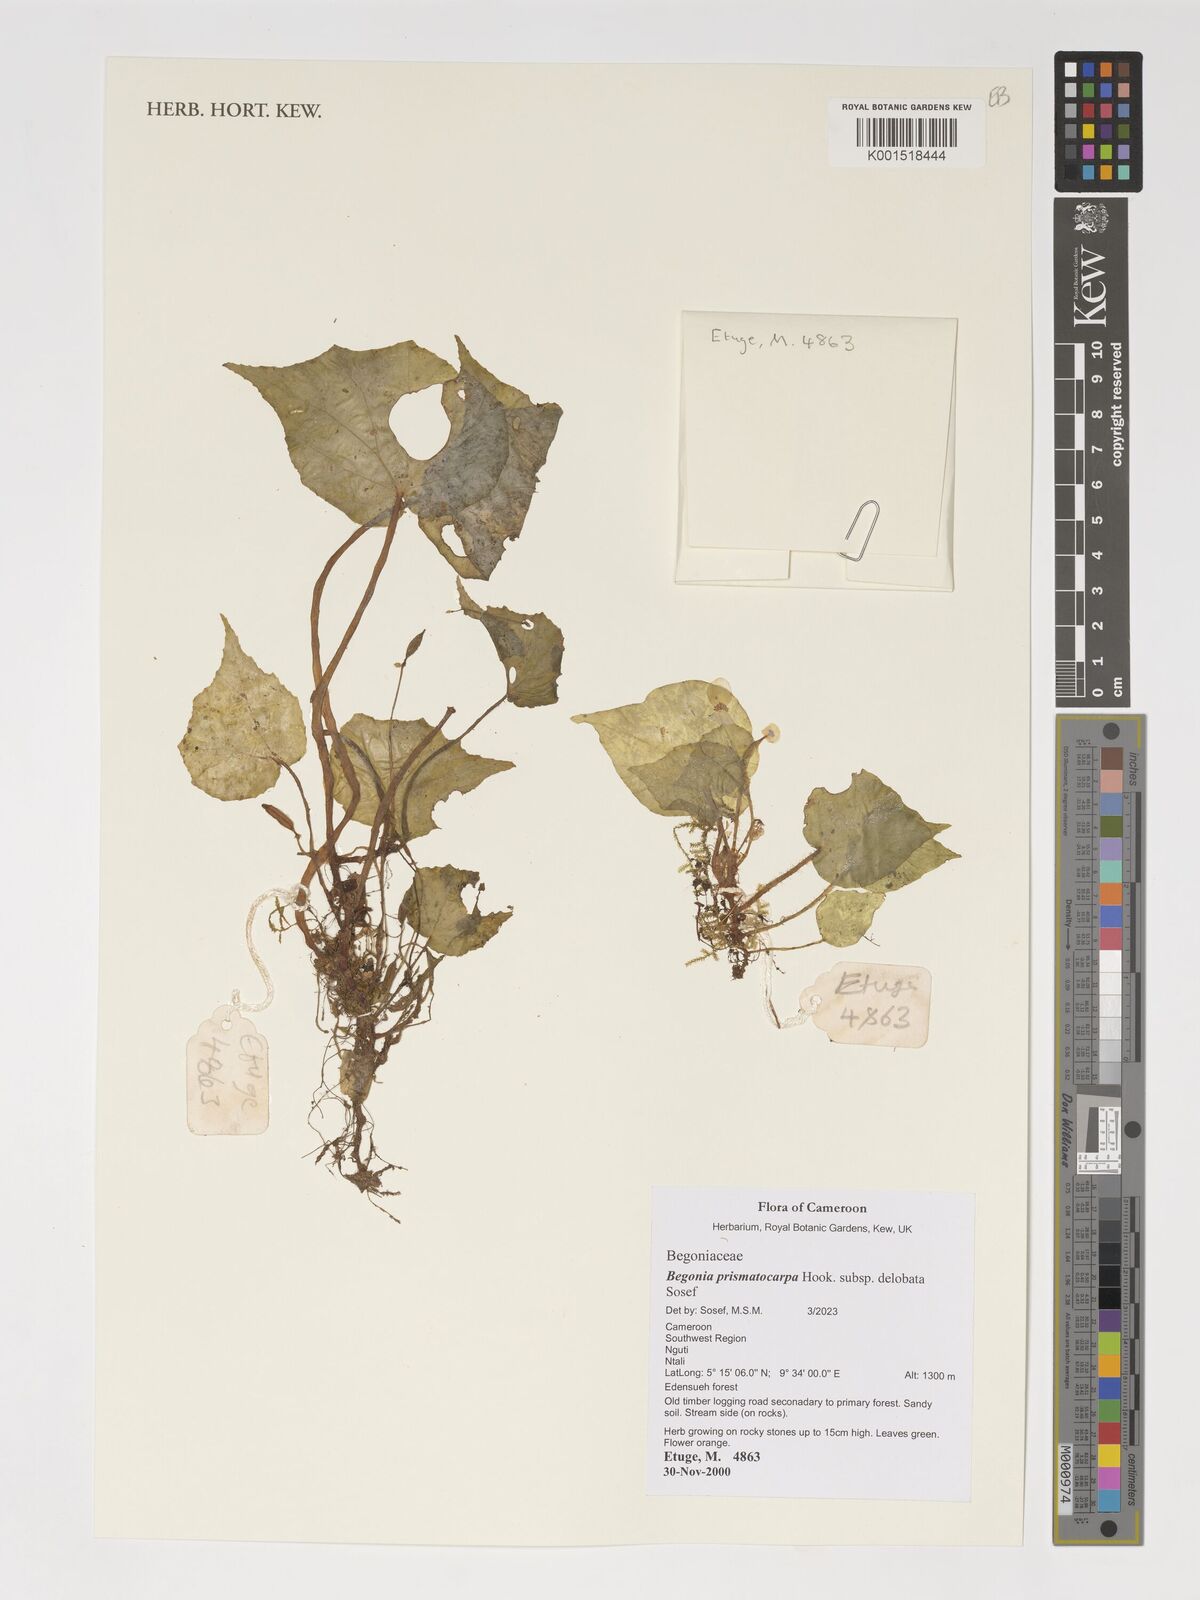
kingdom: Plantae
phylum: Tracheophyta
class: Magnoliopsida
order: Cucurbitales
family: Begoniaceae
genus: Begonia
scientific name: Begonia prismatocarpa
